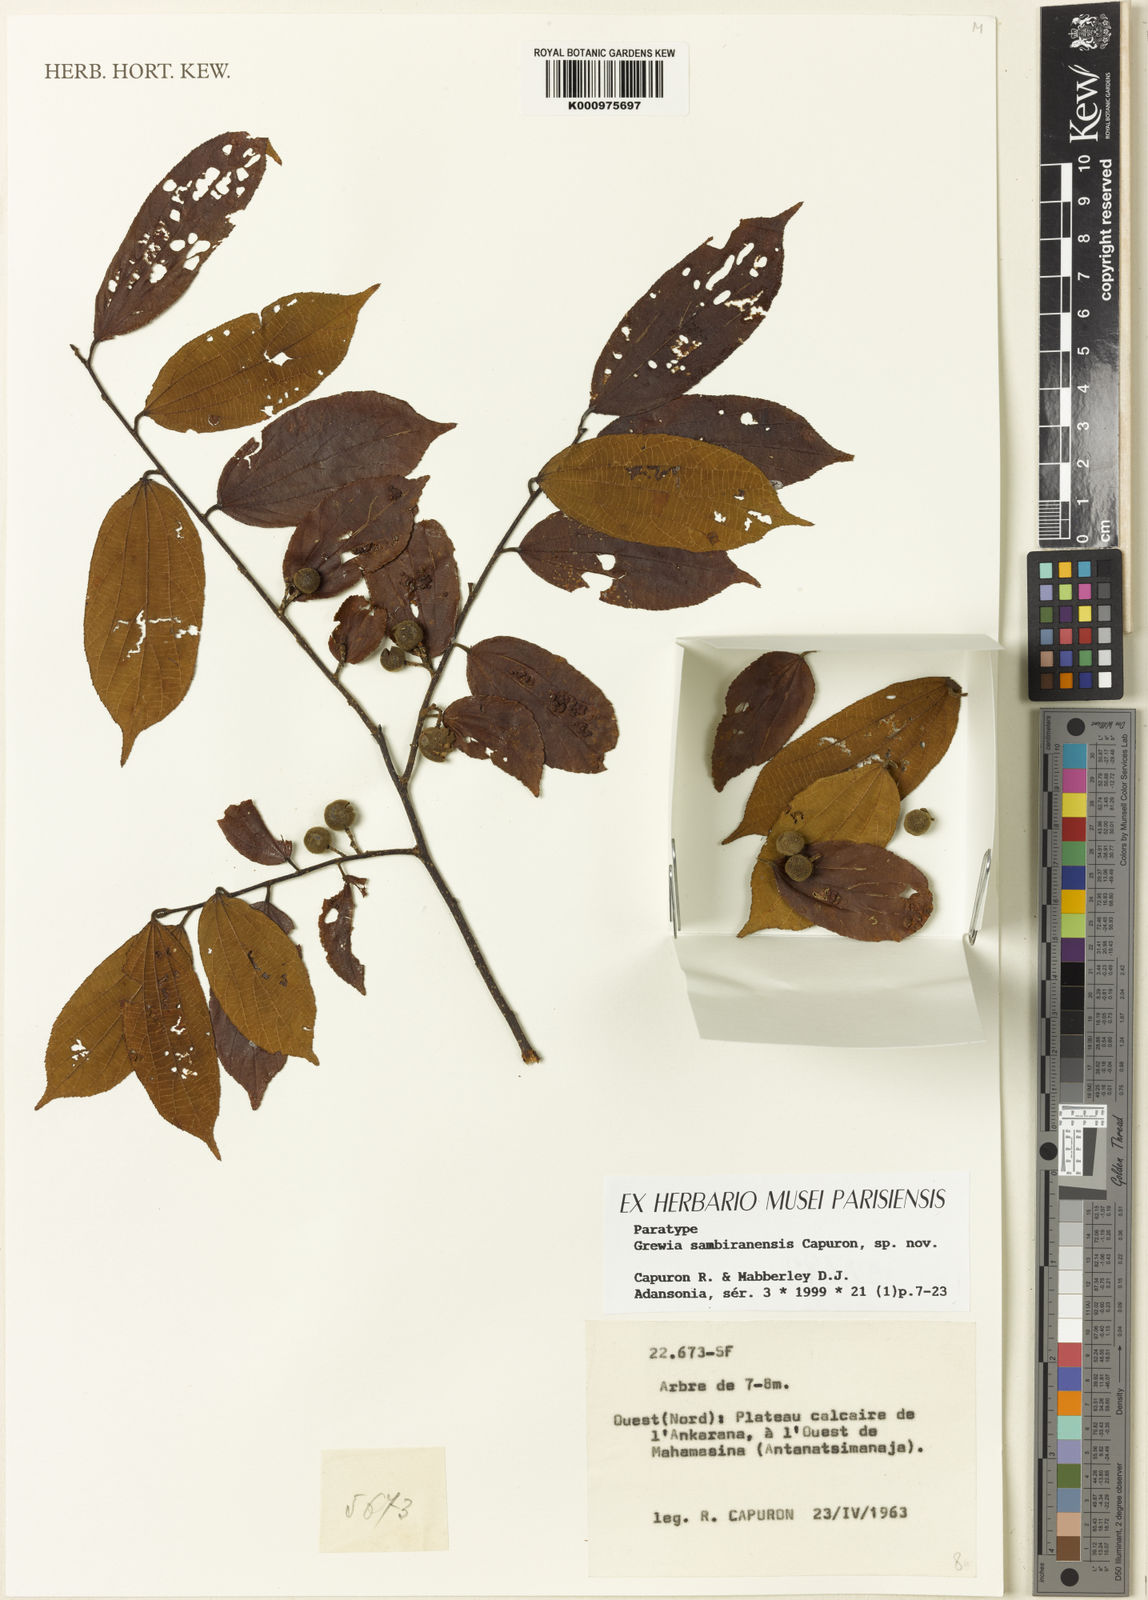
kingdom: Plantae
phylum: Tracheophyta
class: Magnoliopsida
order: Malvales
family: Malvaceae
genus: Grewia
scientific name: Grewia sambiranensis
